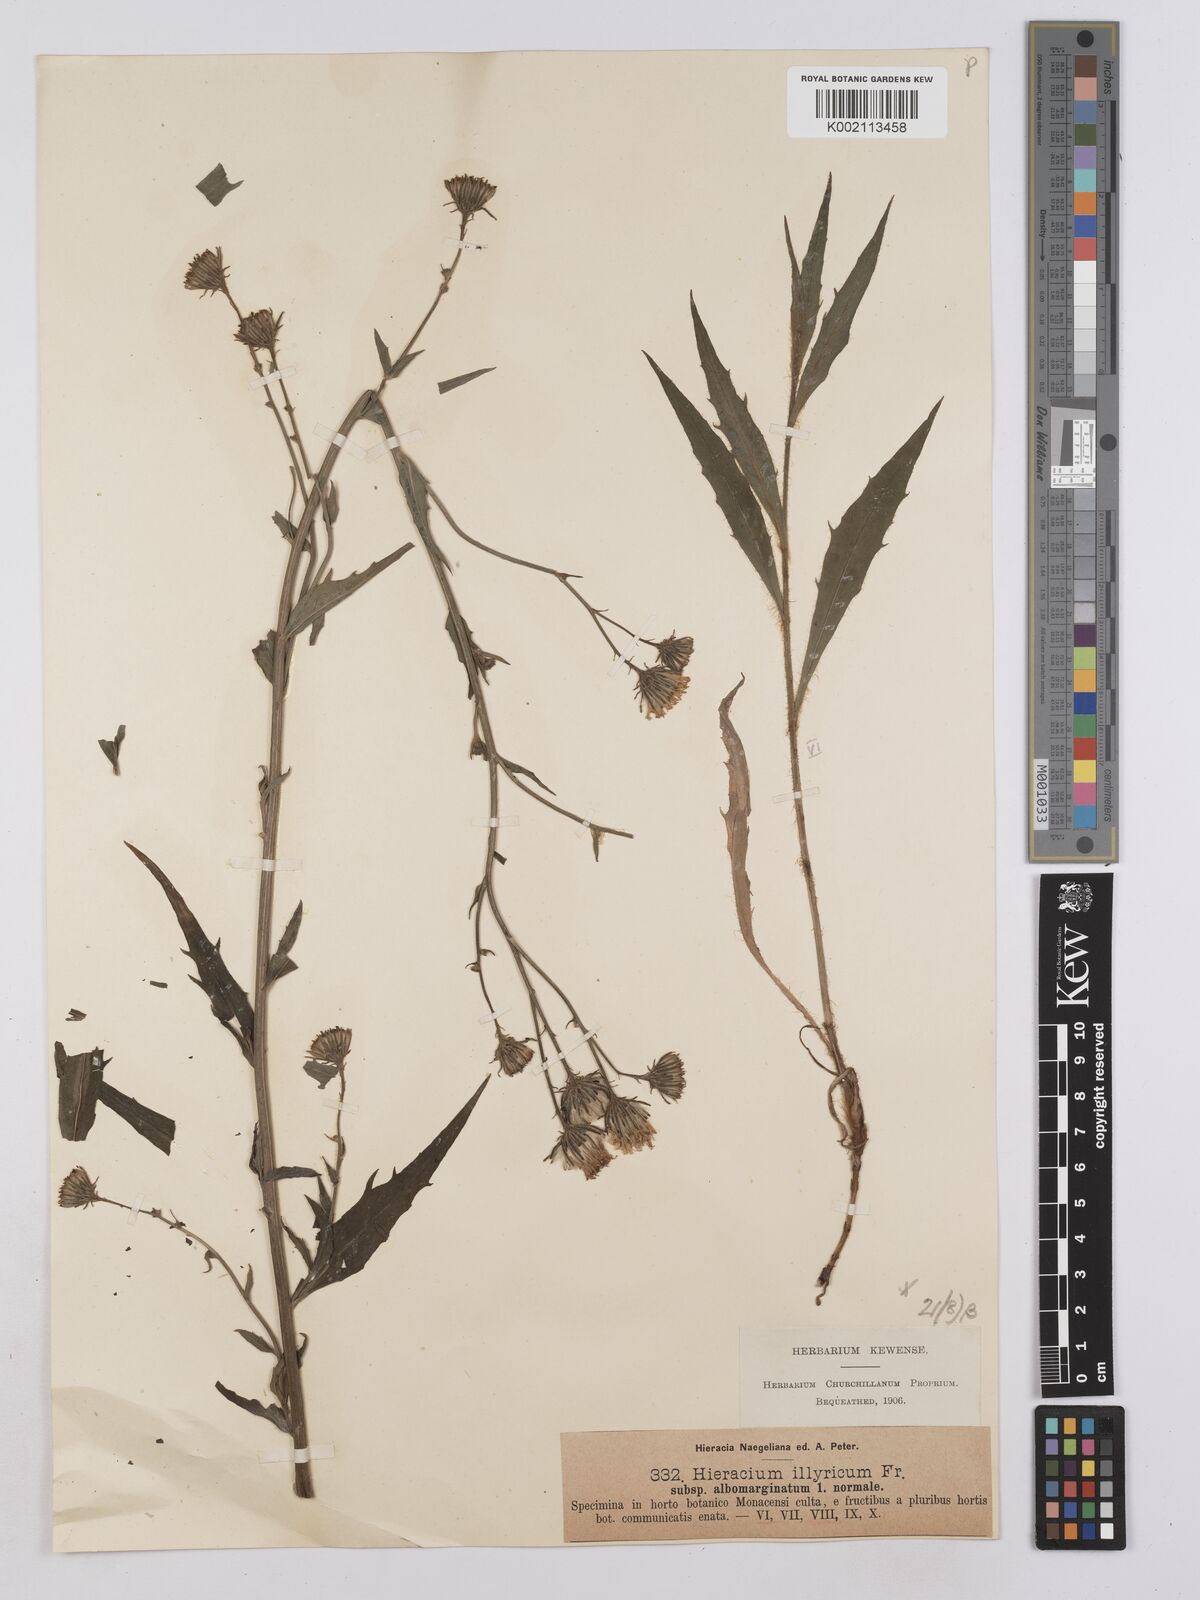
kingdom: Plantae
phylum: Tracheophyta
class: Magnoliopsida
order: Asterales
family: Asteraceae
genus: Hieracium
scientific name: Hieracium calcareum
